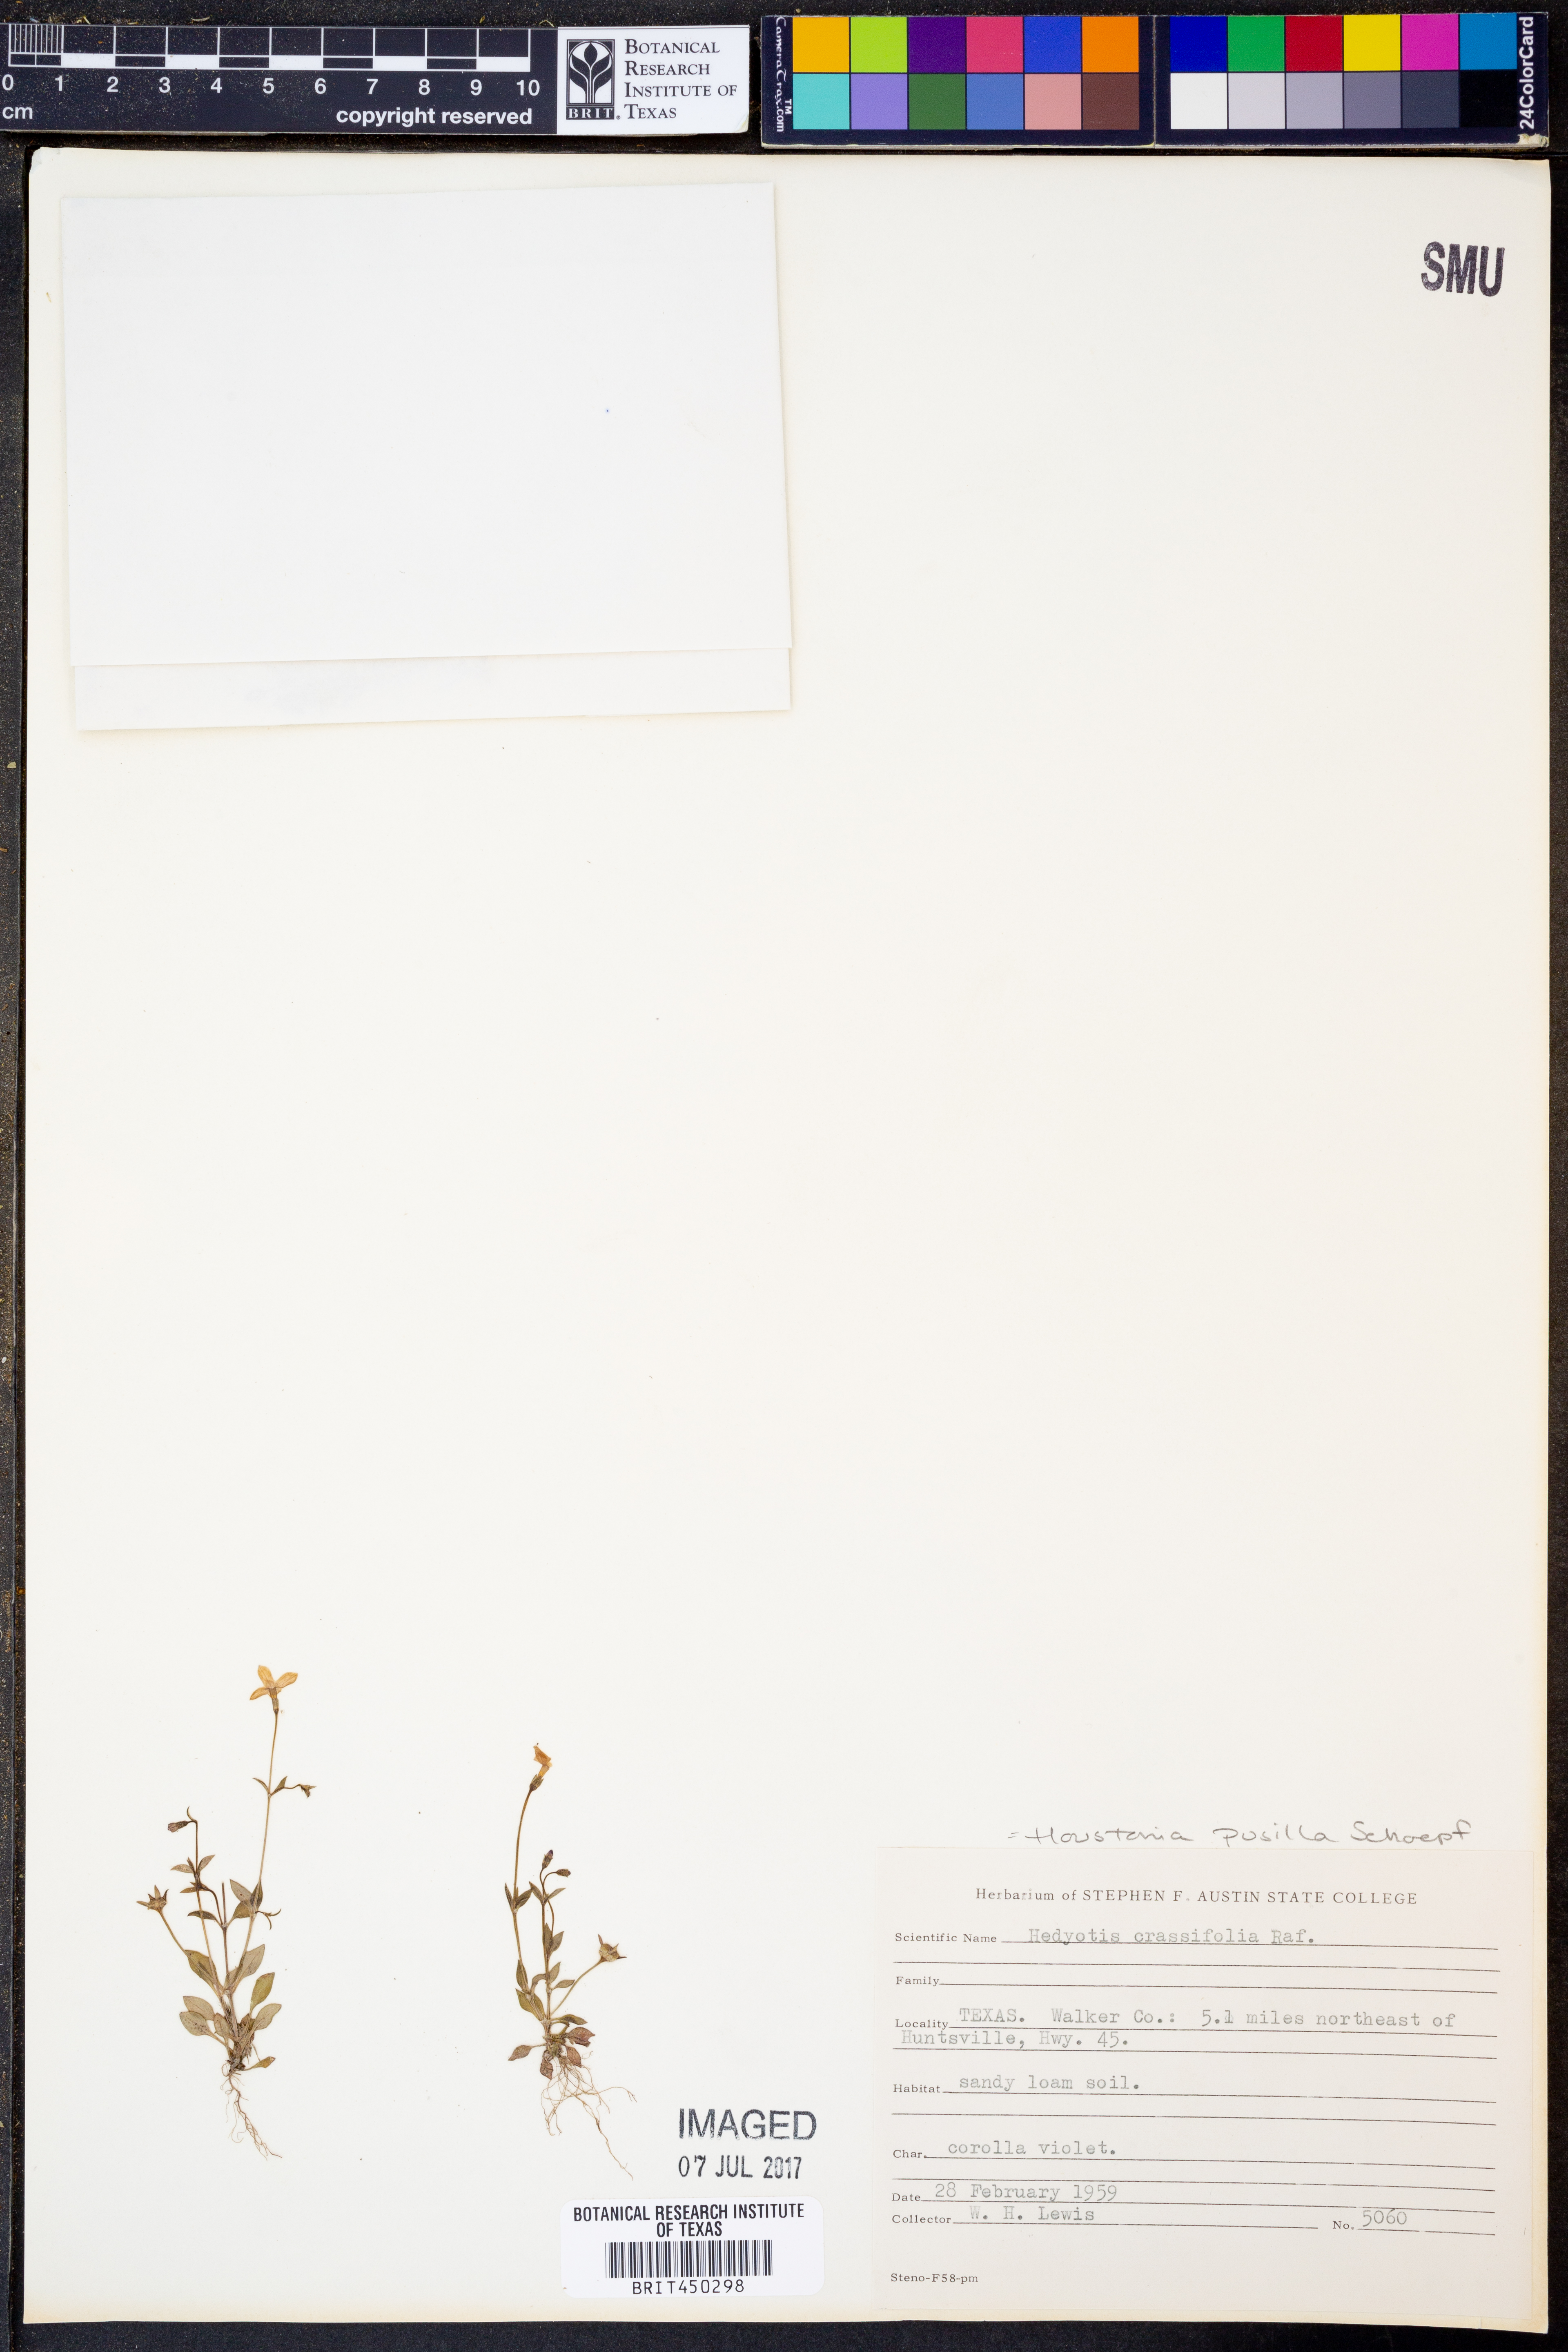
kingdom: Plantae
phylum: Tracheophyta
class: Magnoliopsida
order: Gentianales
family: Rubiaceae
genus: Houstonia
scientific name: Houstonia pusilla
